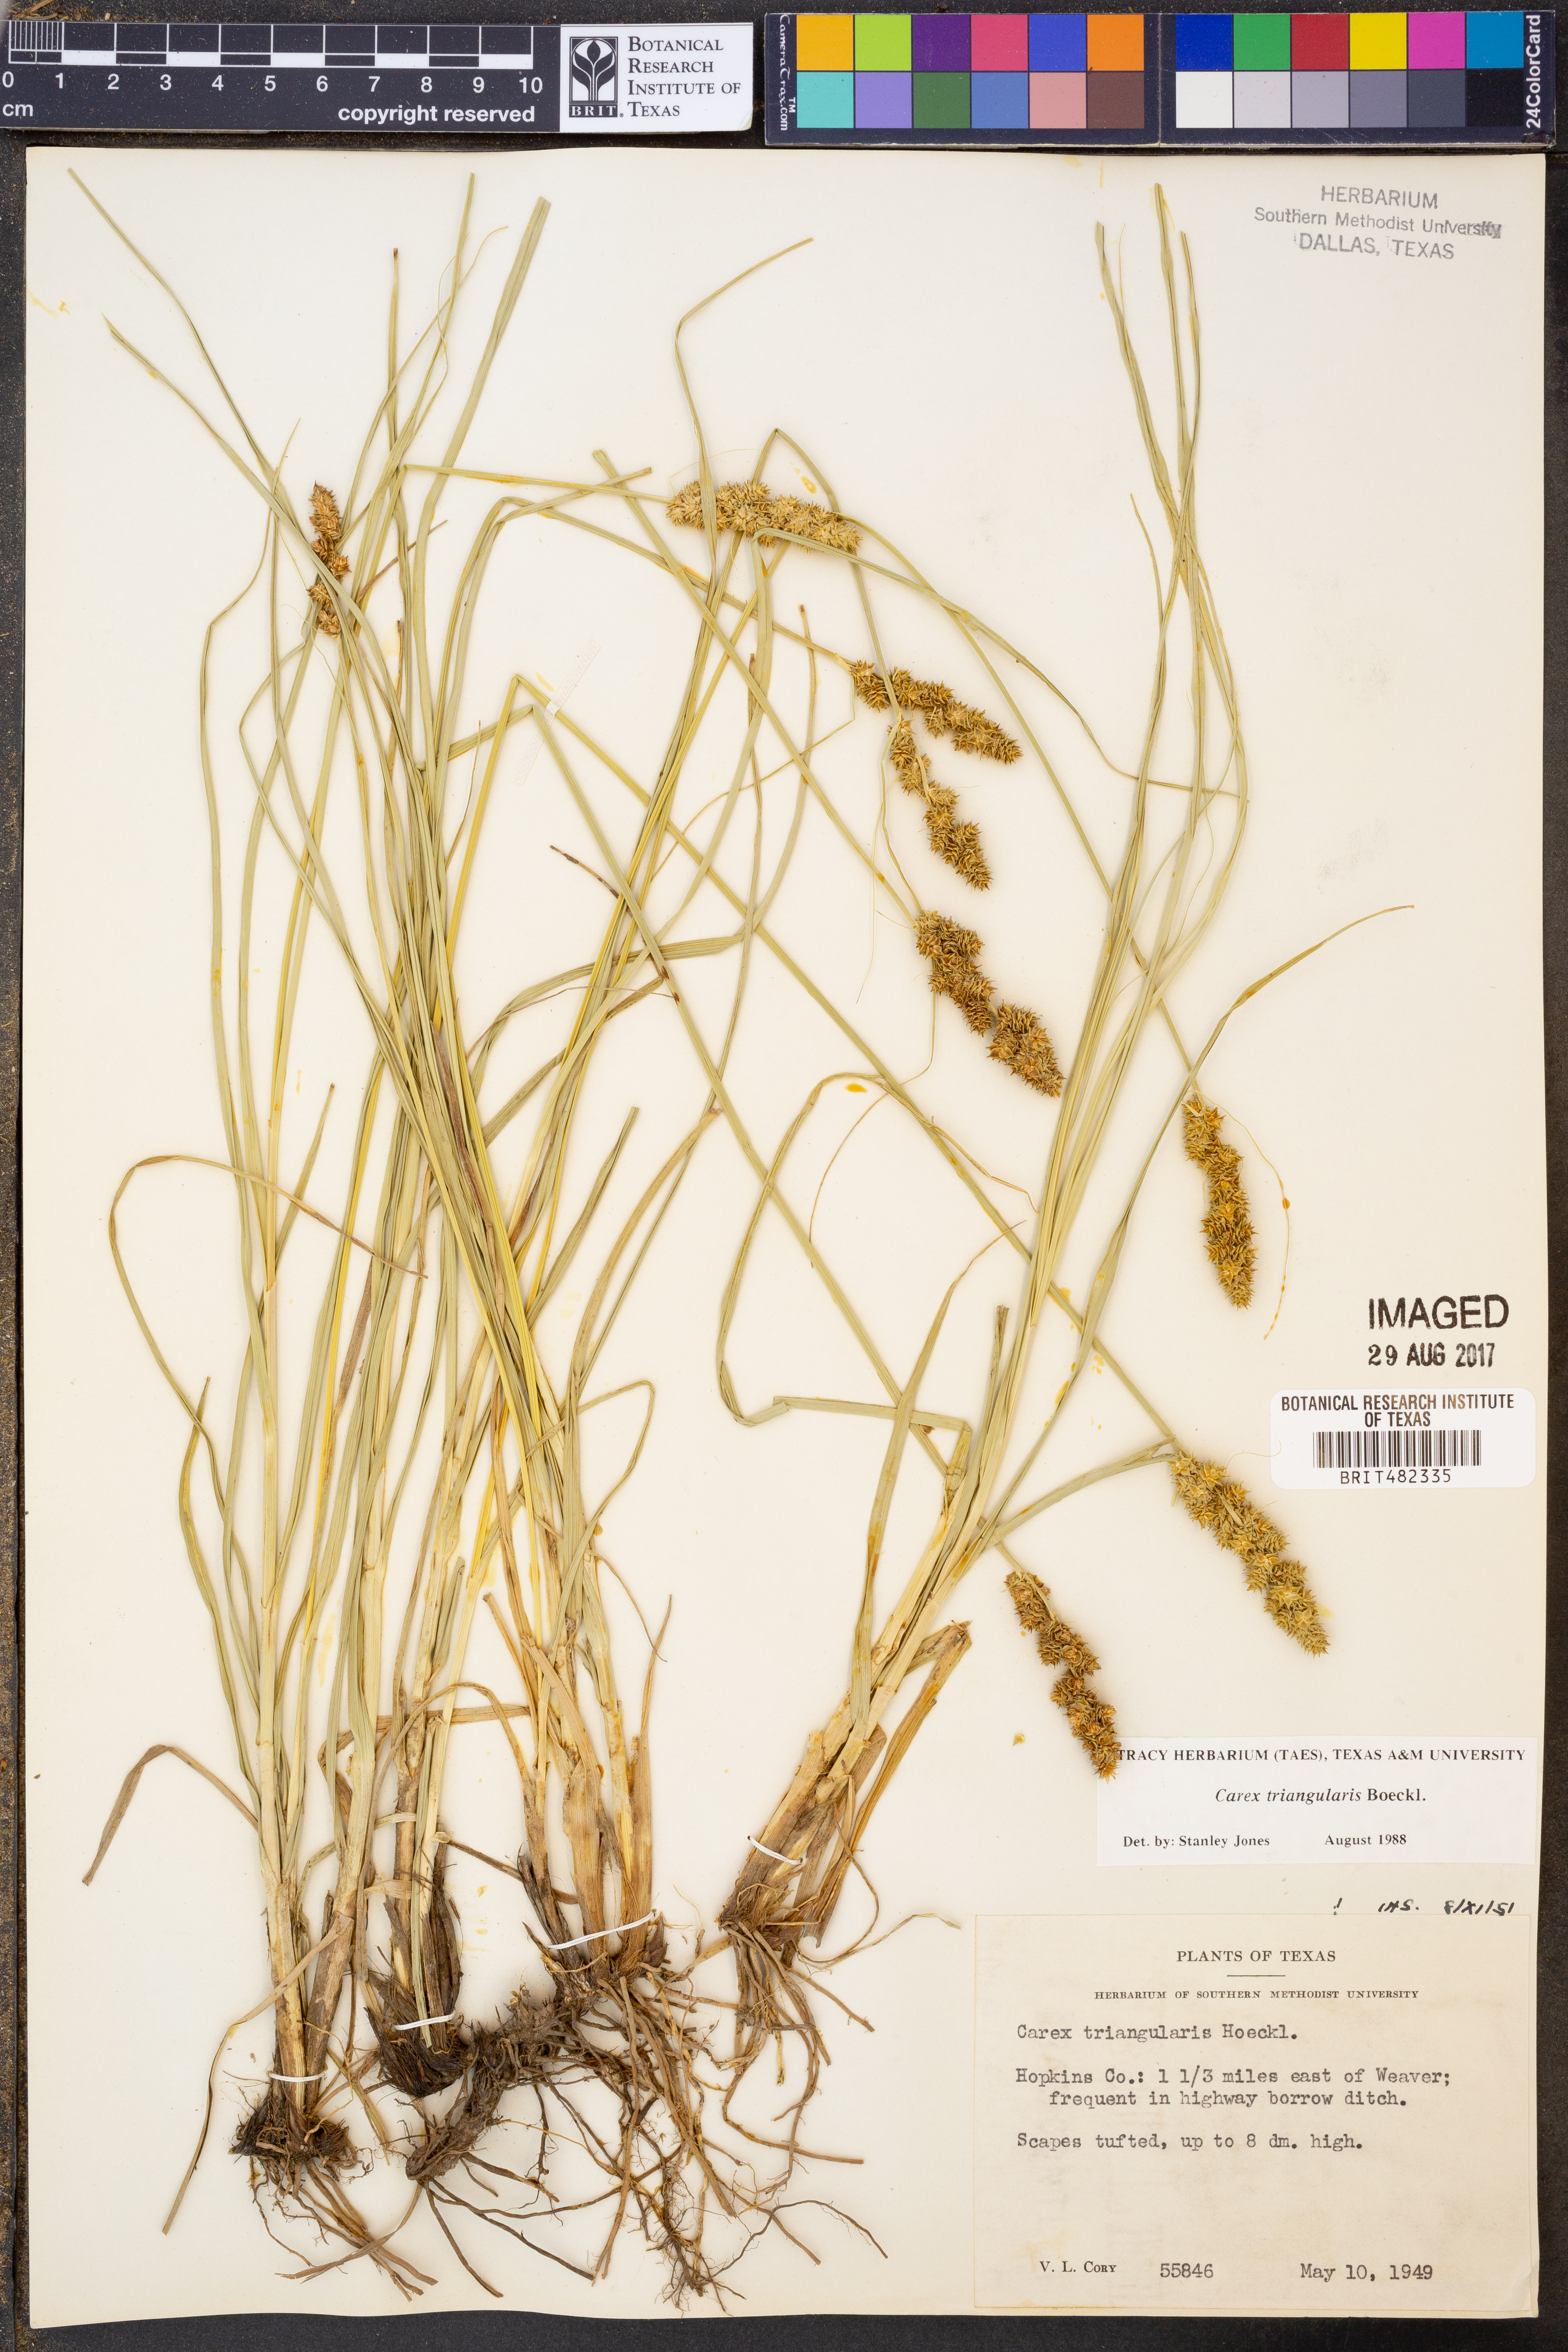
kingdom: Plantae
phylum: Tracheophyta
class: Liliopsida
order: Poales
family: Cyperaceae
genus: Carex
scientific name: Carex triangularis
